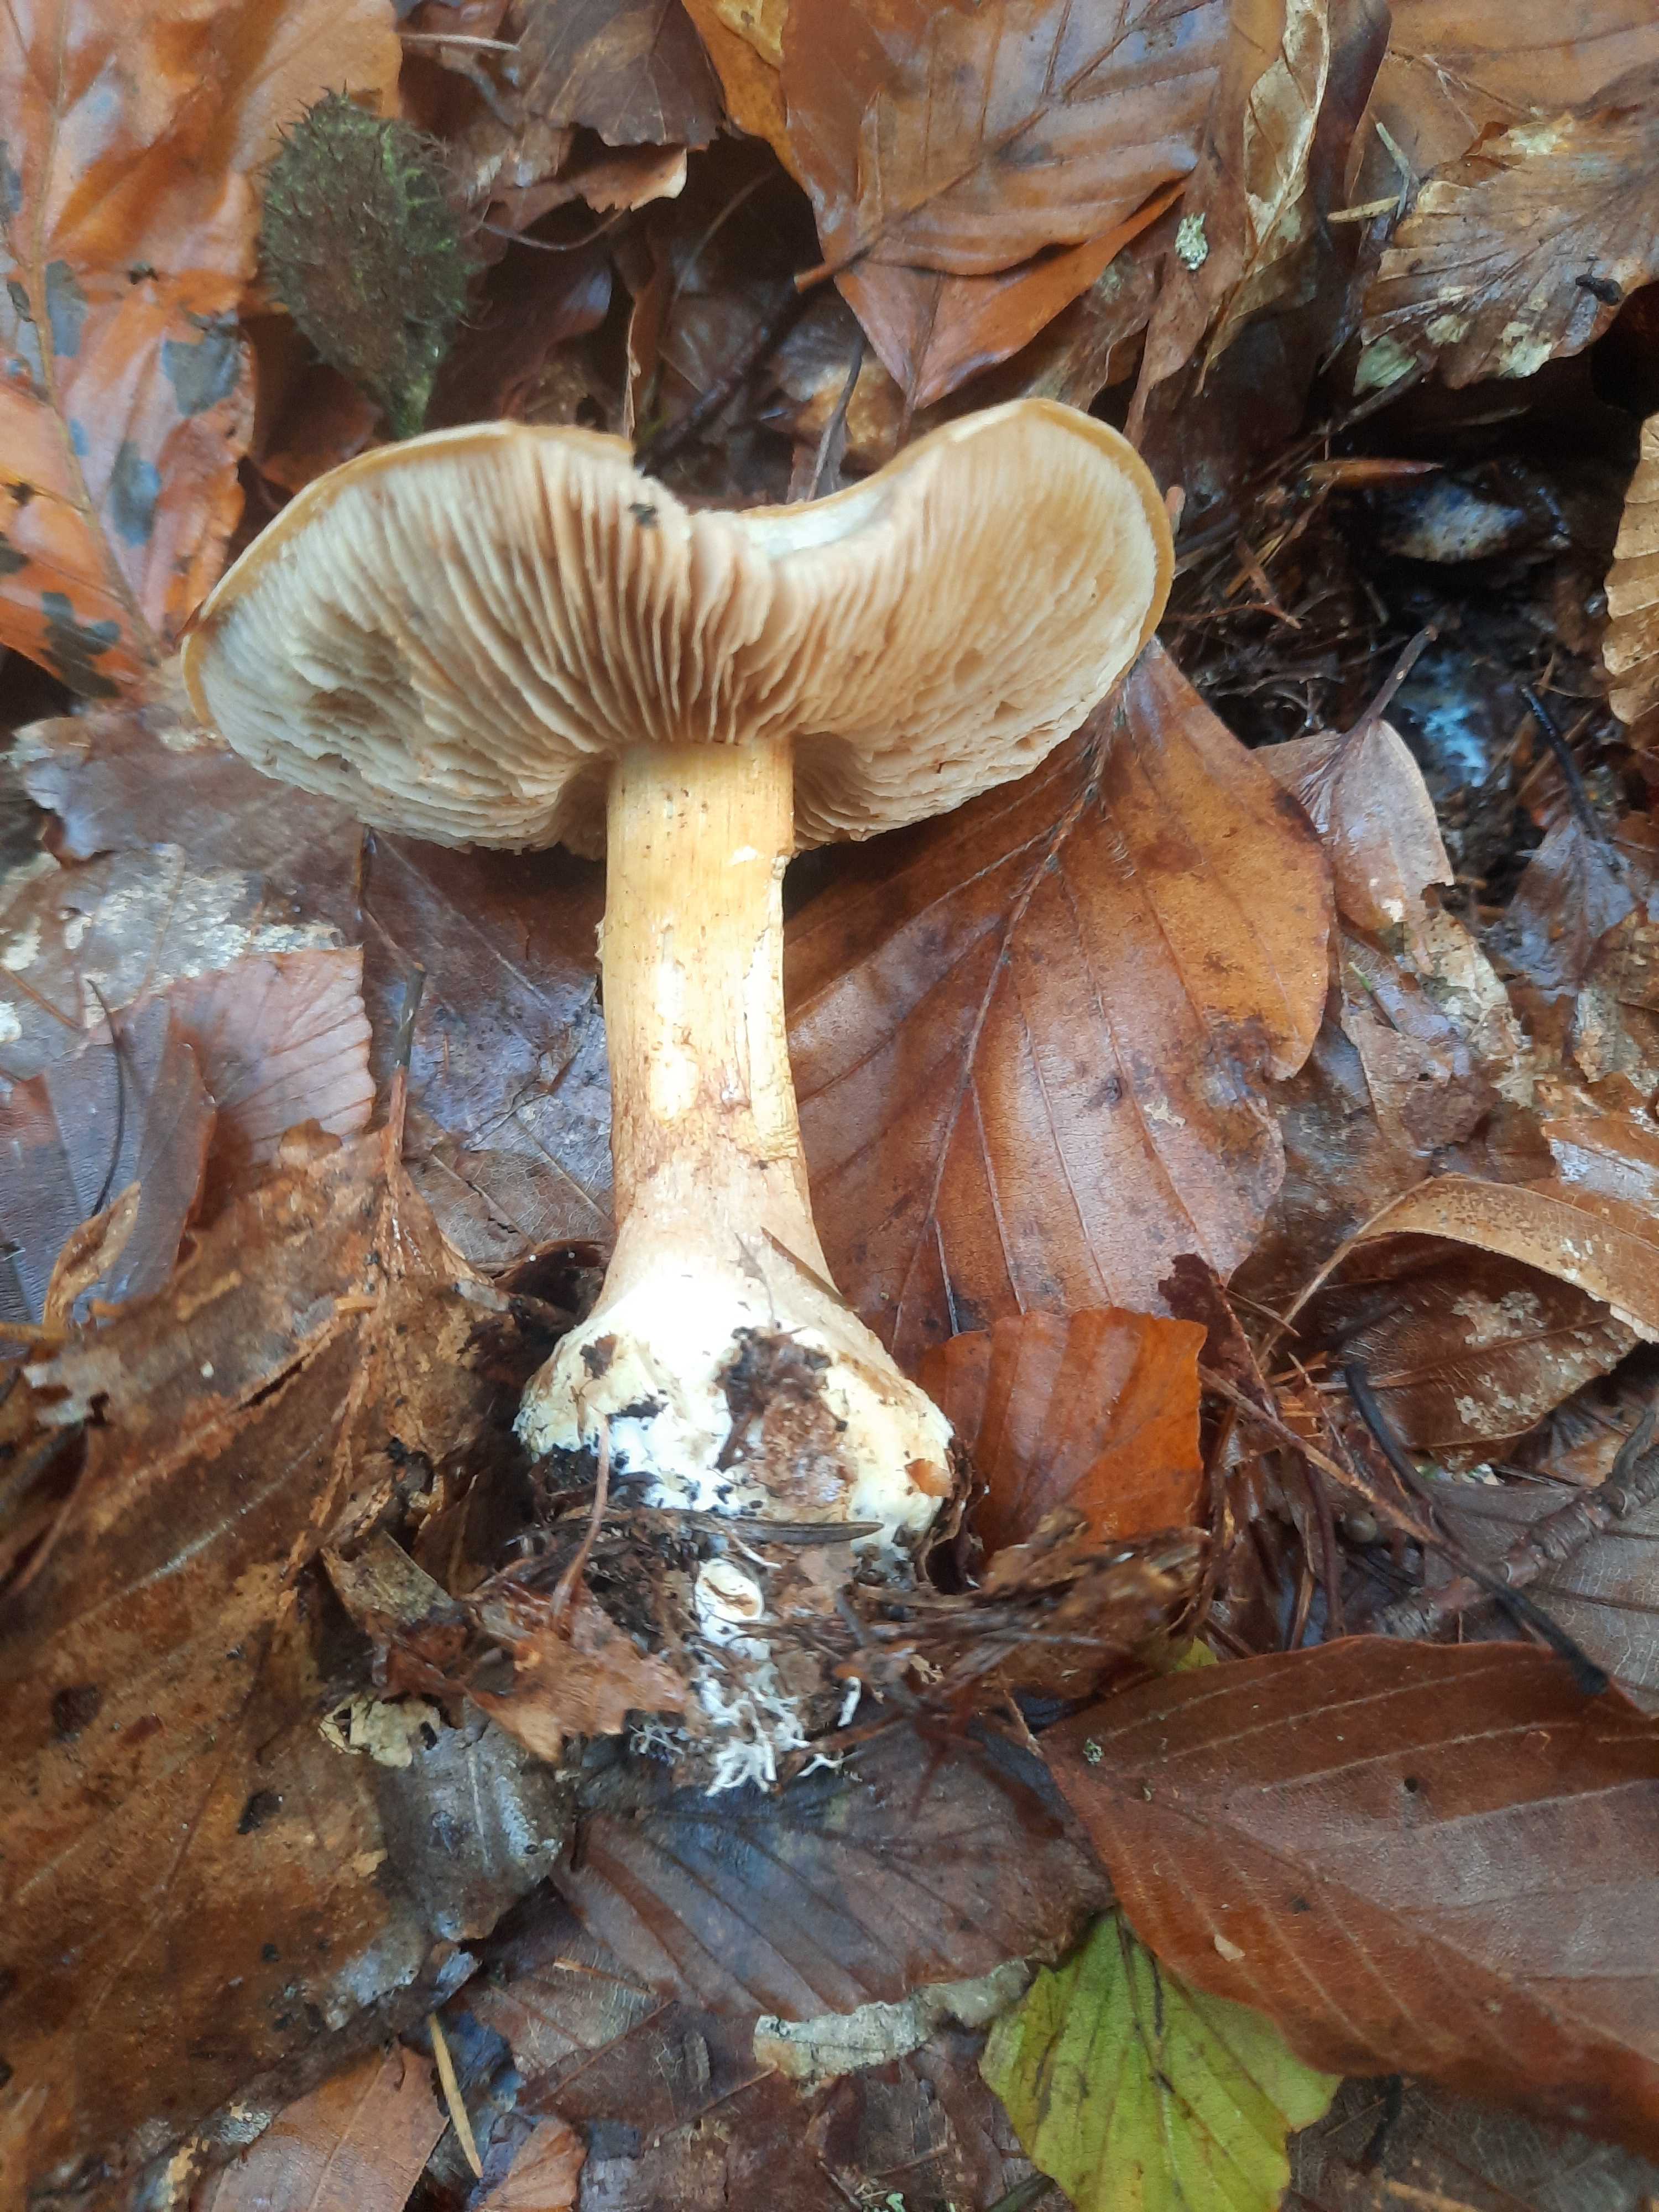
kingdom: Fungi
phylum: Basidiomycota
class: Agaricomycetes
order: Agaricales
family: Cortinariaceae
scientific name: Cortinariaceae
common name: slørhatfamilien
